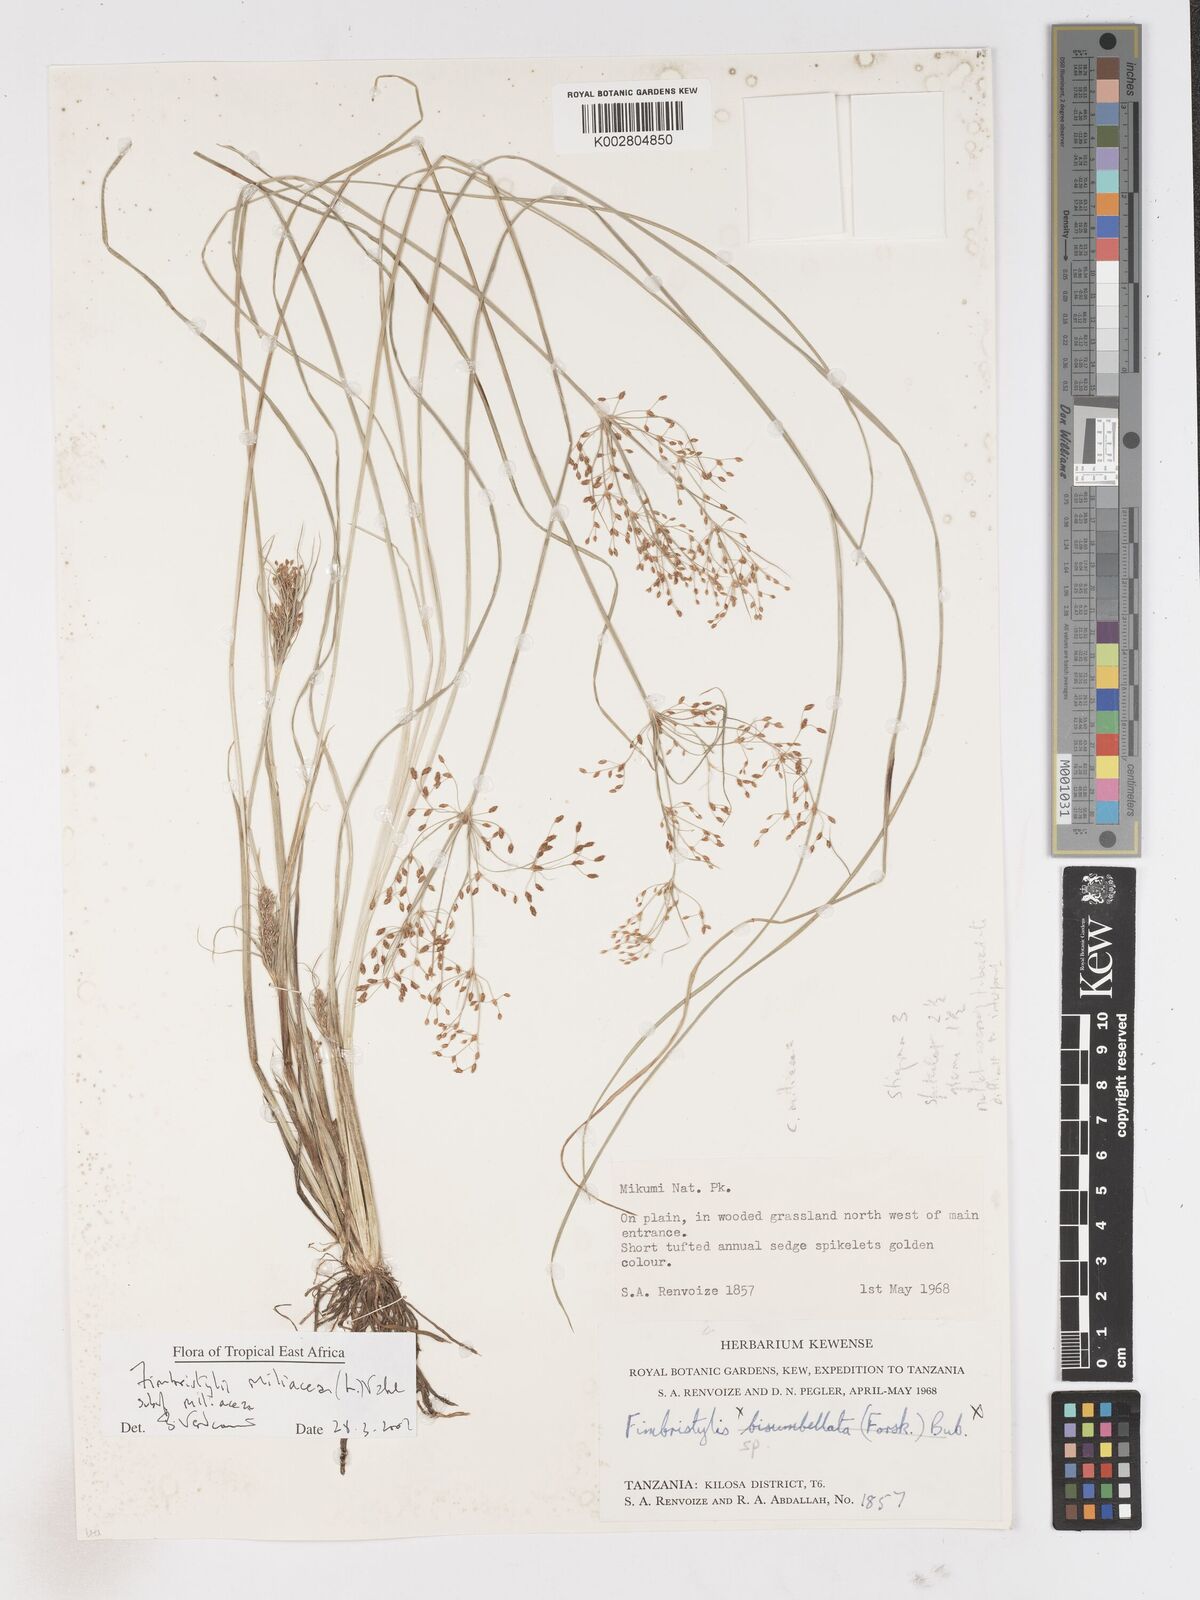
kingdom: Plantae
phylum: Tracheophyta
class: Liliopsida
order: Poales
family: Cyperaceae
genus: Fimbristylis
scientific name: Fimbristylis quinquangularis
